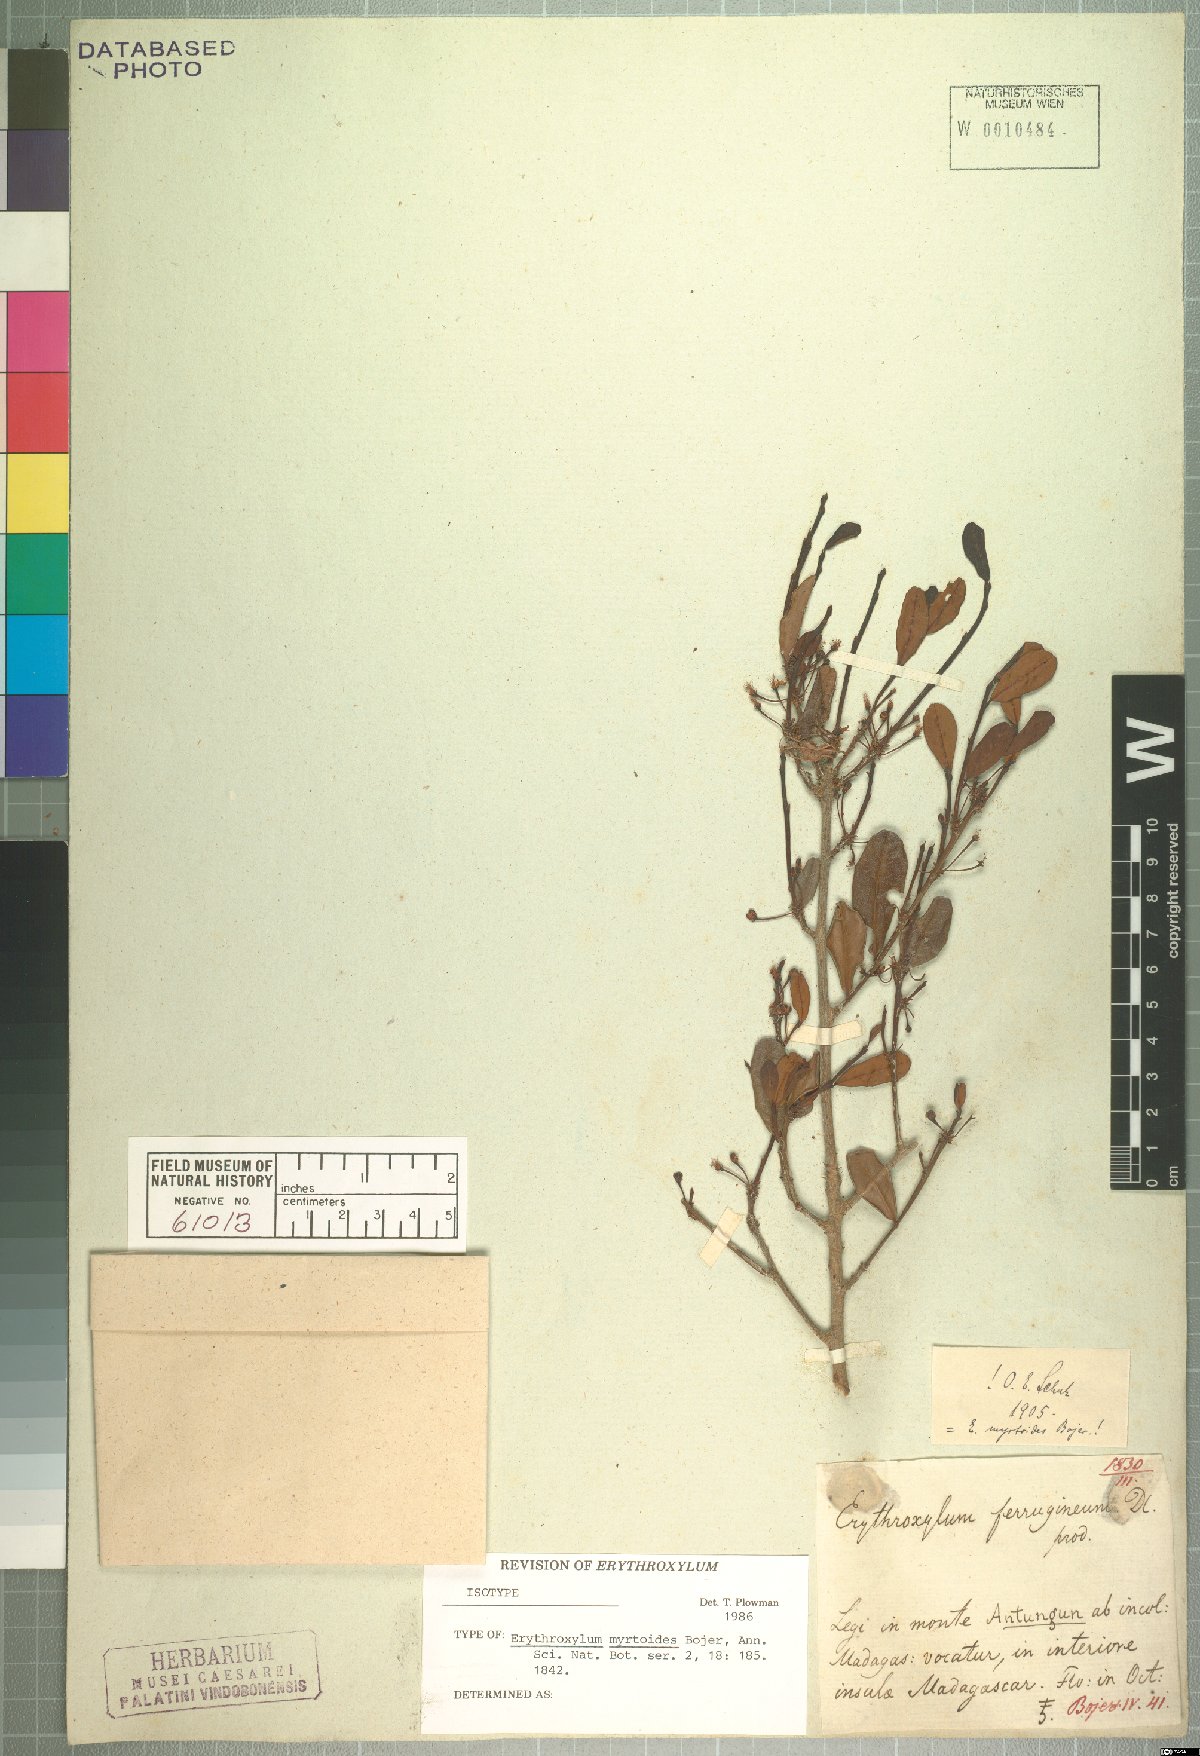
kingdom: Plantae
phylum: Tracheophyta
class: Magnoliopsida
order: Malpighiales
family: Erythroxylaceae
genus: Erythroxylum
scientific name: Erythroxylum ferrugineum
